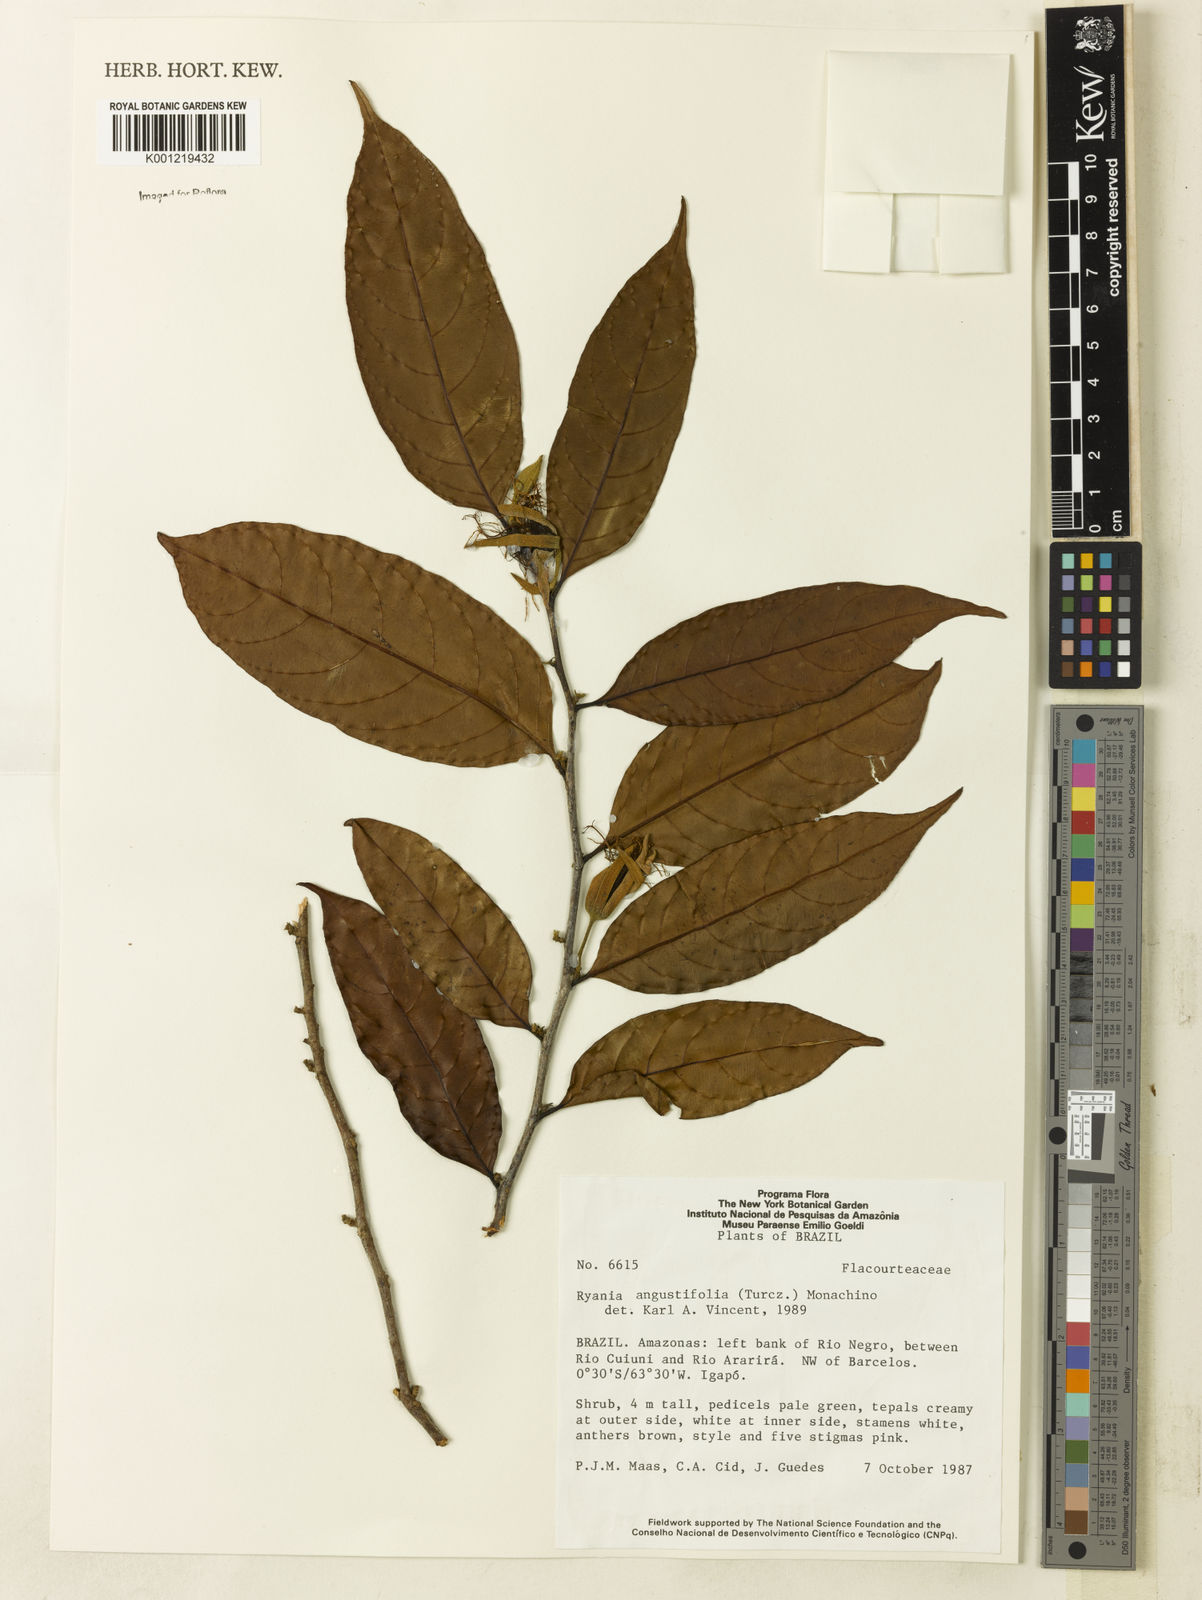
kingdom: Plantae
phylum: Tracheophyta
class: Magnoliopsida
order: Malpighiales
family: Salicaceae
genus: Ryania
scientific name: Ryania angustifolia
